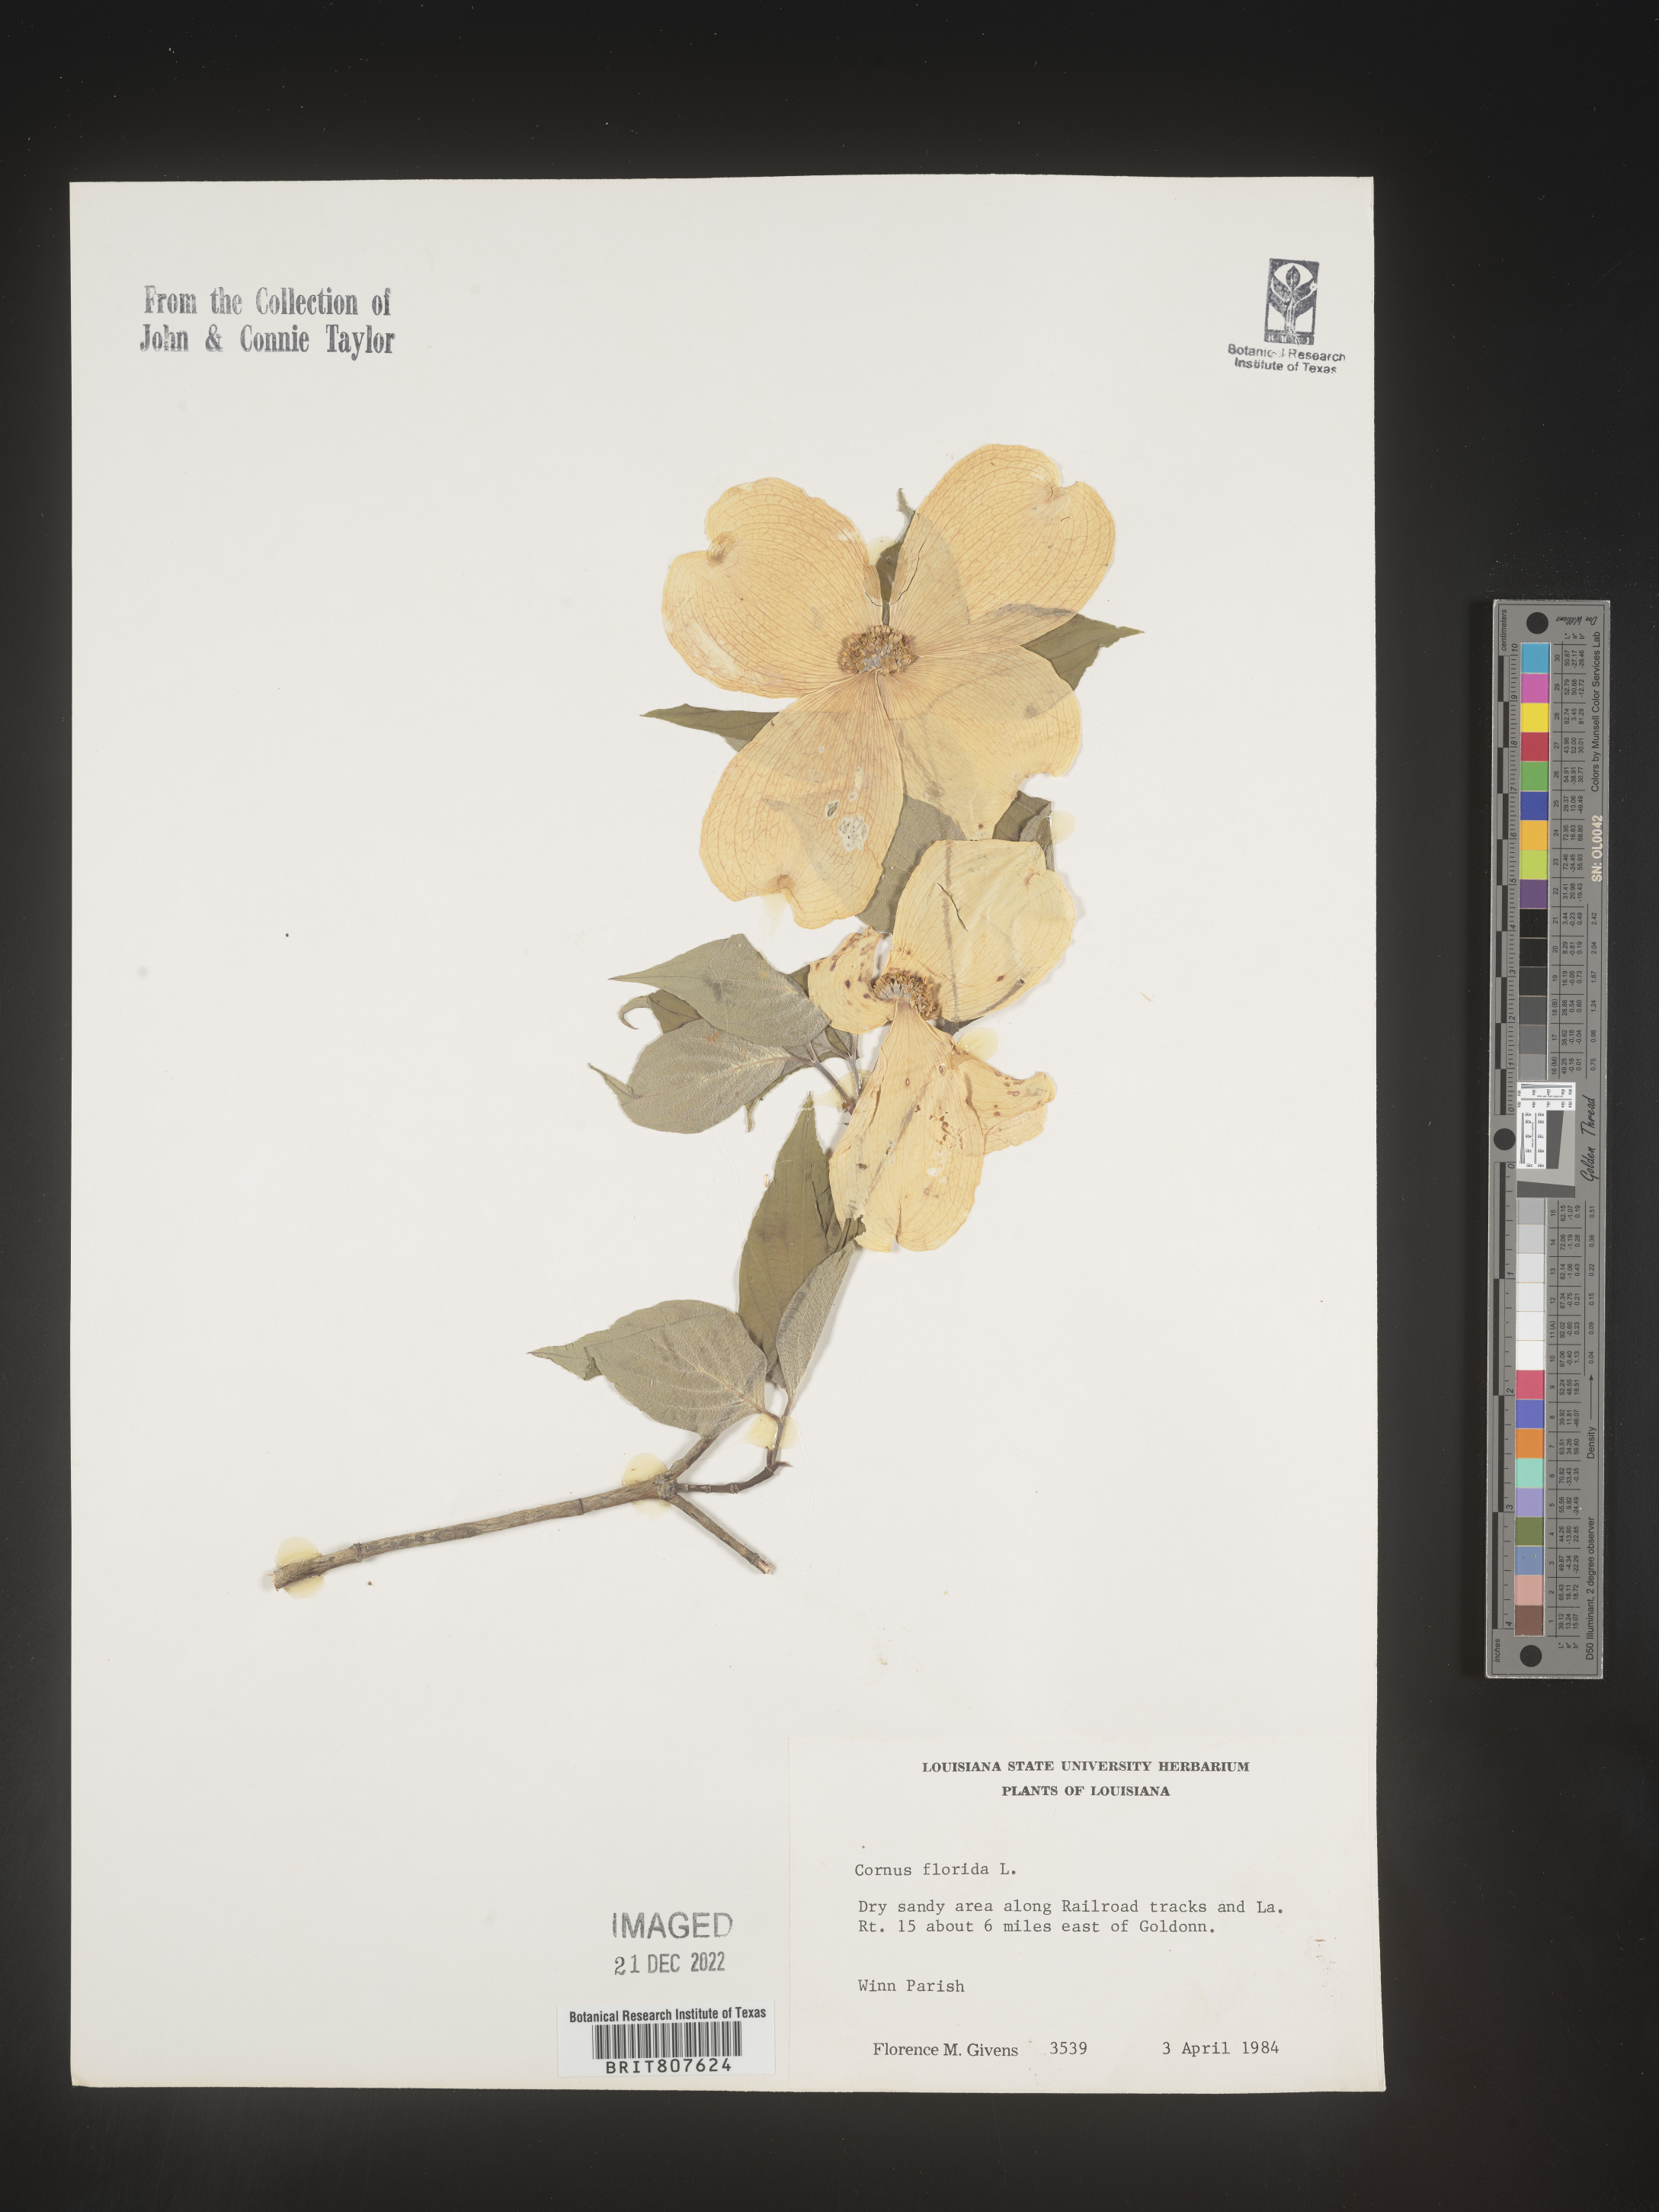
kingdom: Plantae
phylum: Tracheophyta
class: Magnoliopsida
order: Cornales
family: Cornaceae
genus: Cornus
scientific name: Cornus florida
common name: Flowering dogwood
